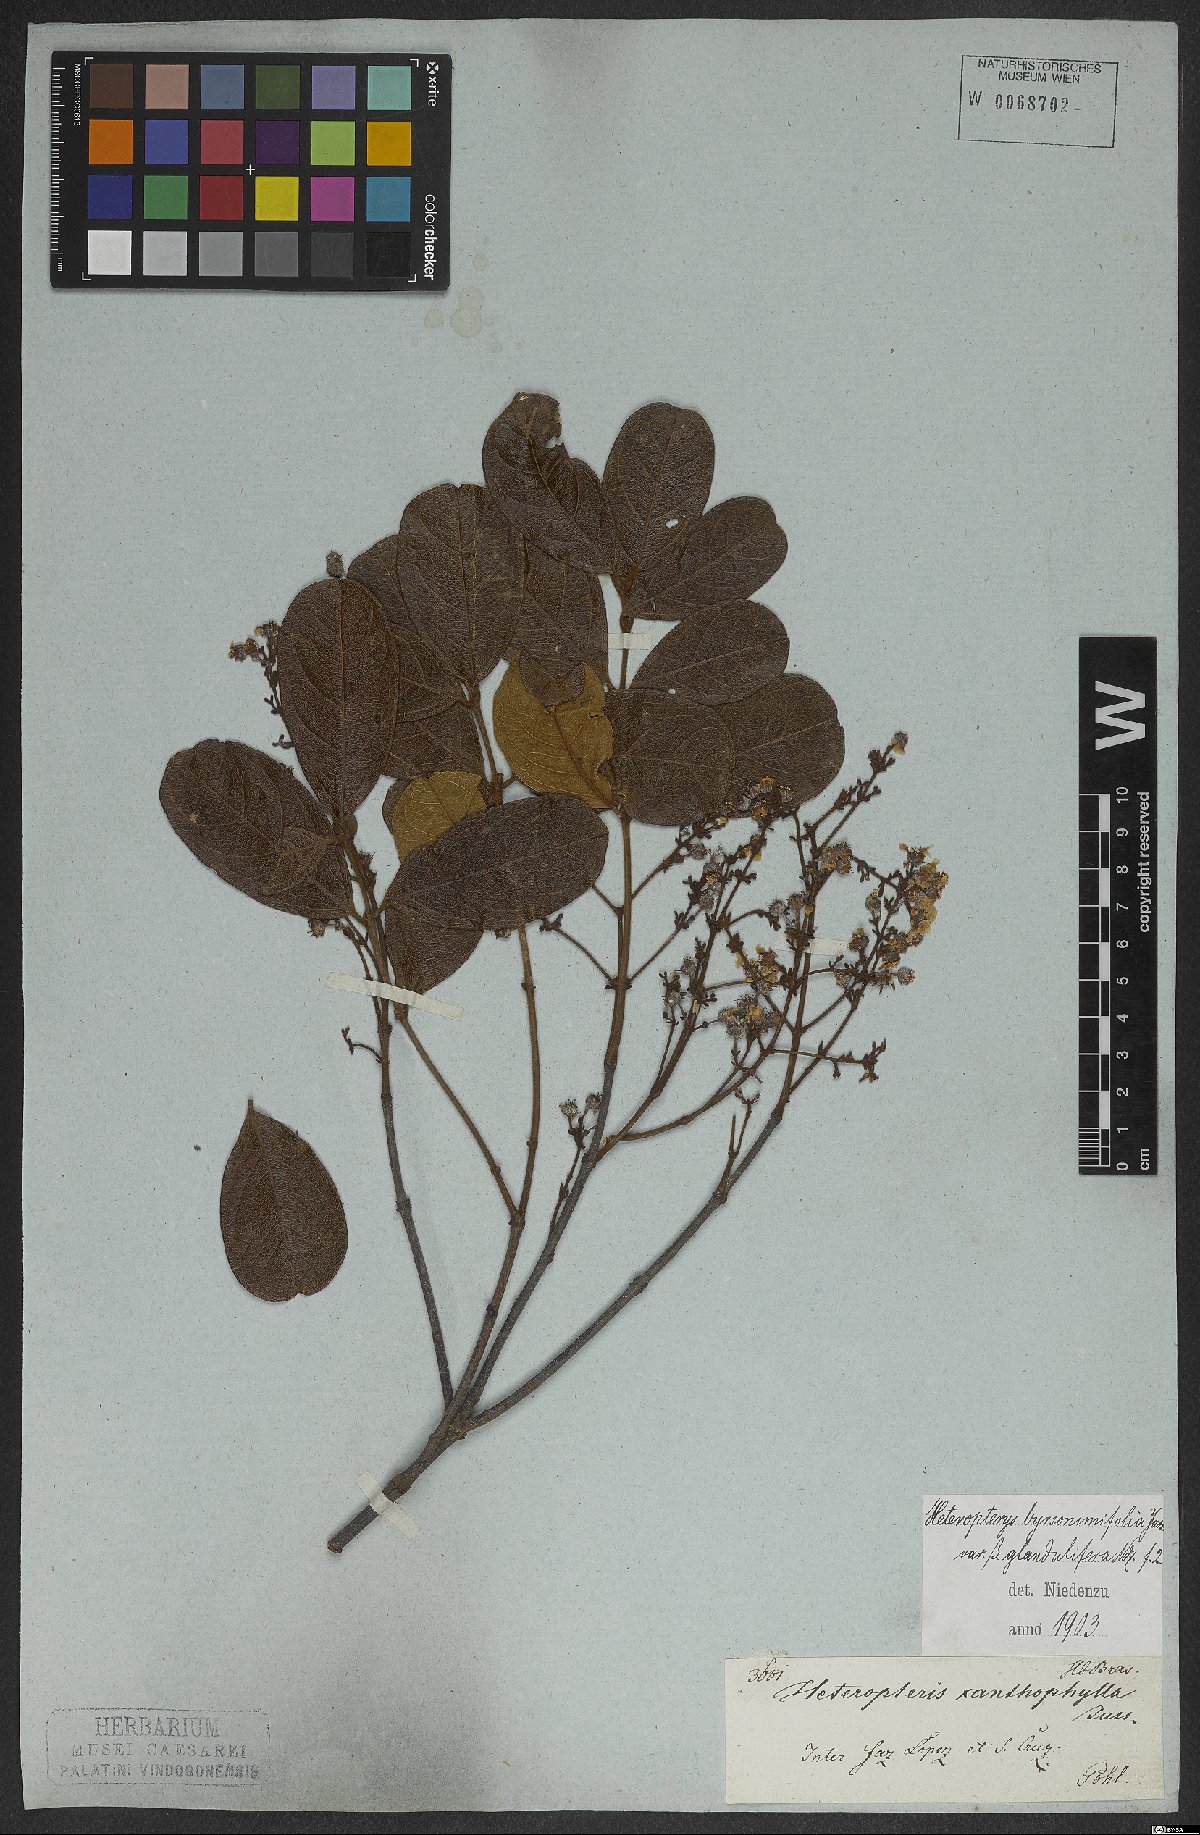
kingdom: Plantae
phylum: Tracheophyta
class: Magnoliopsida
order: Malpighiales
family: Malpighiaceae
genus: Heteropterys
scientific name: Heteropterys byrsonimifolia
